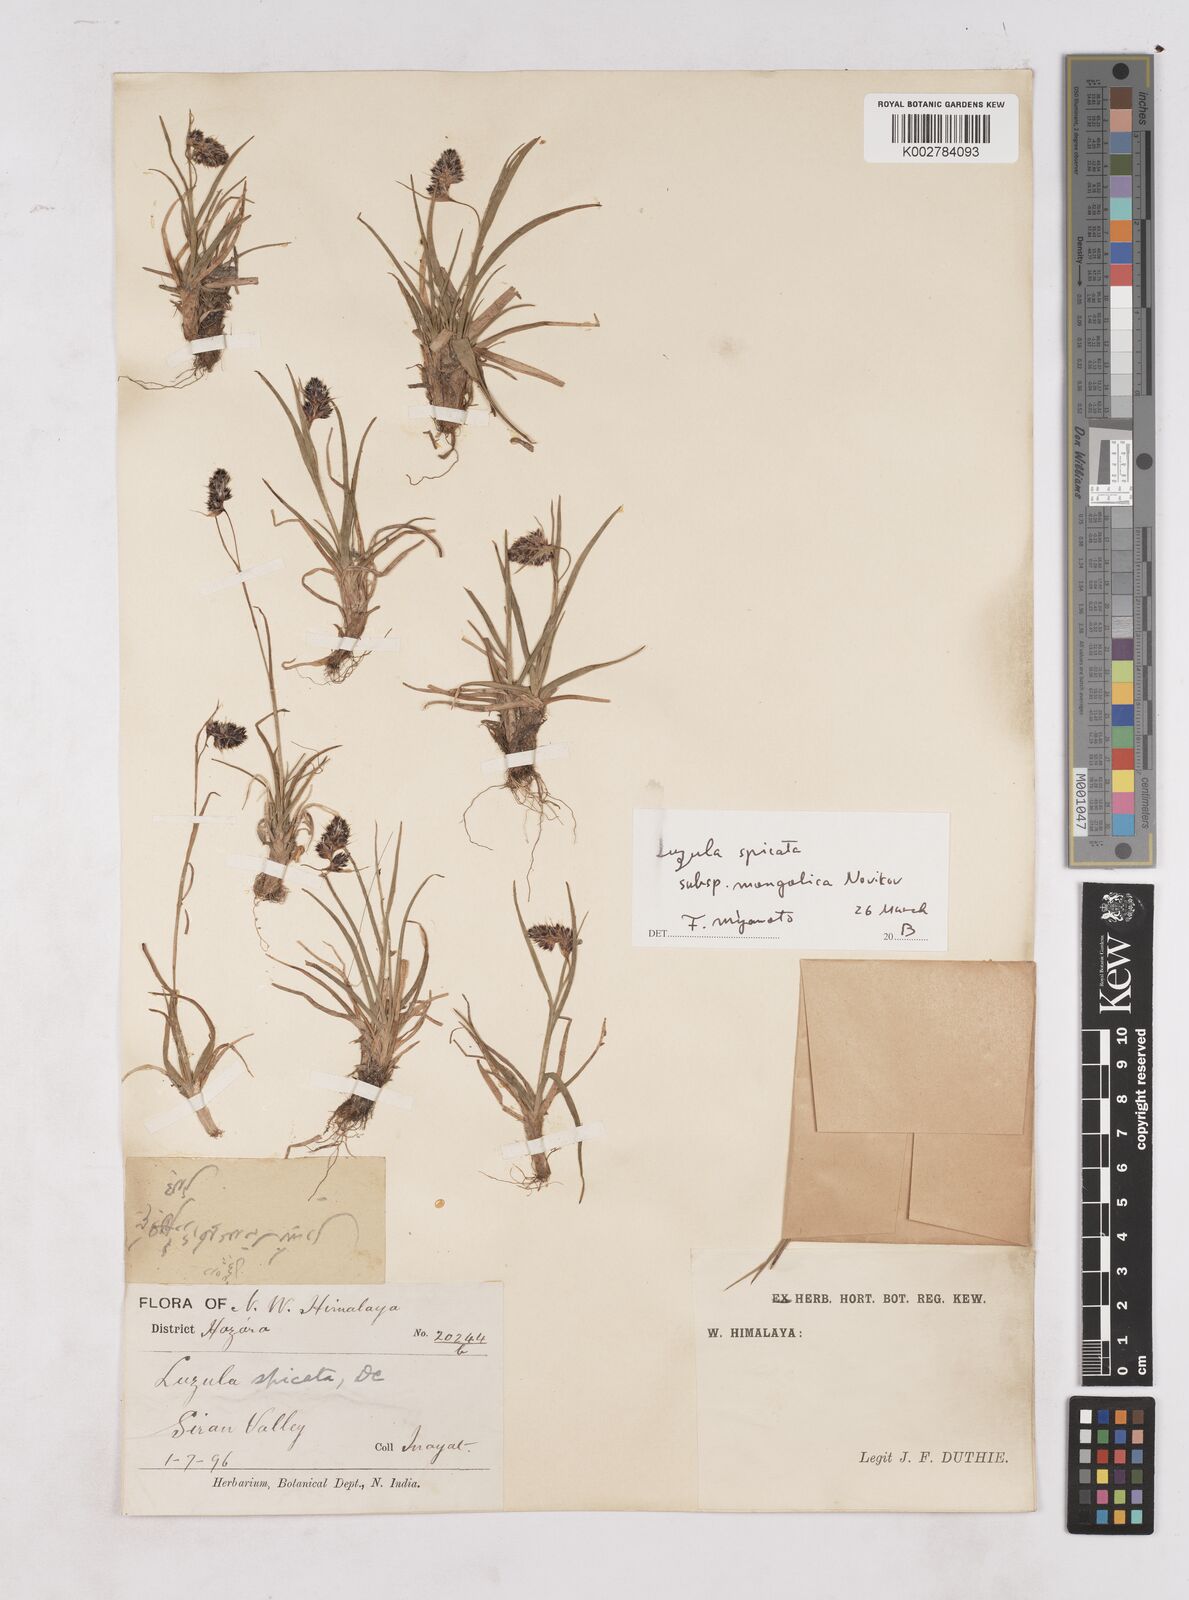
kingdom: Plantae
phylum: Tracheophyta
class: Liliopsida
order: Poales
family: Juncaceae
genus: Luzula
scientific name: Luzula spicata
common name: Spiked wood-rush
